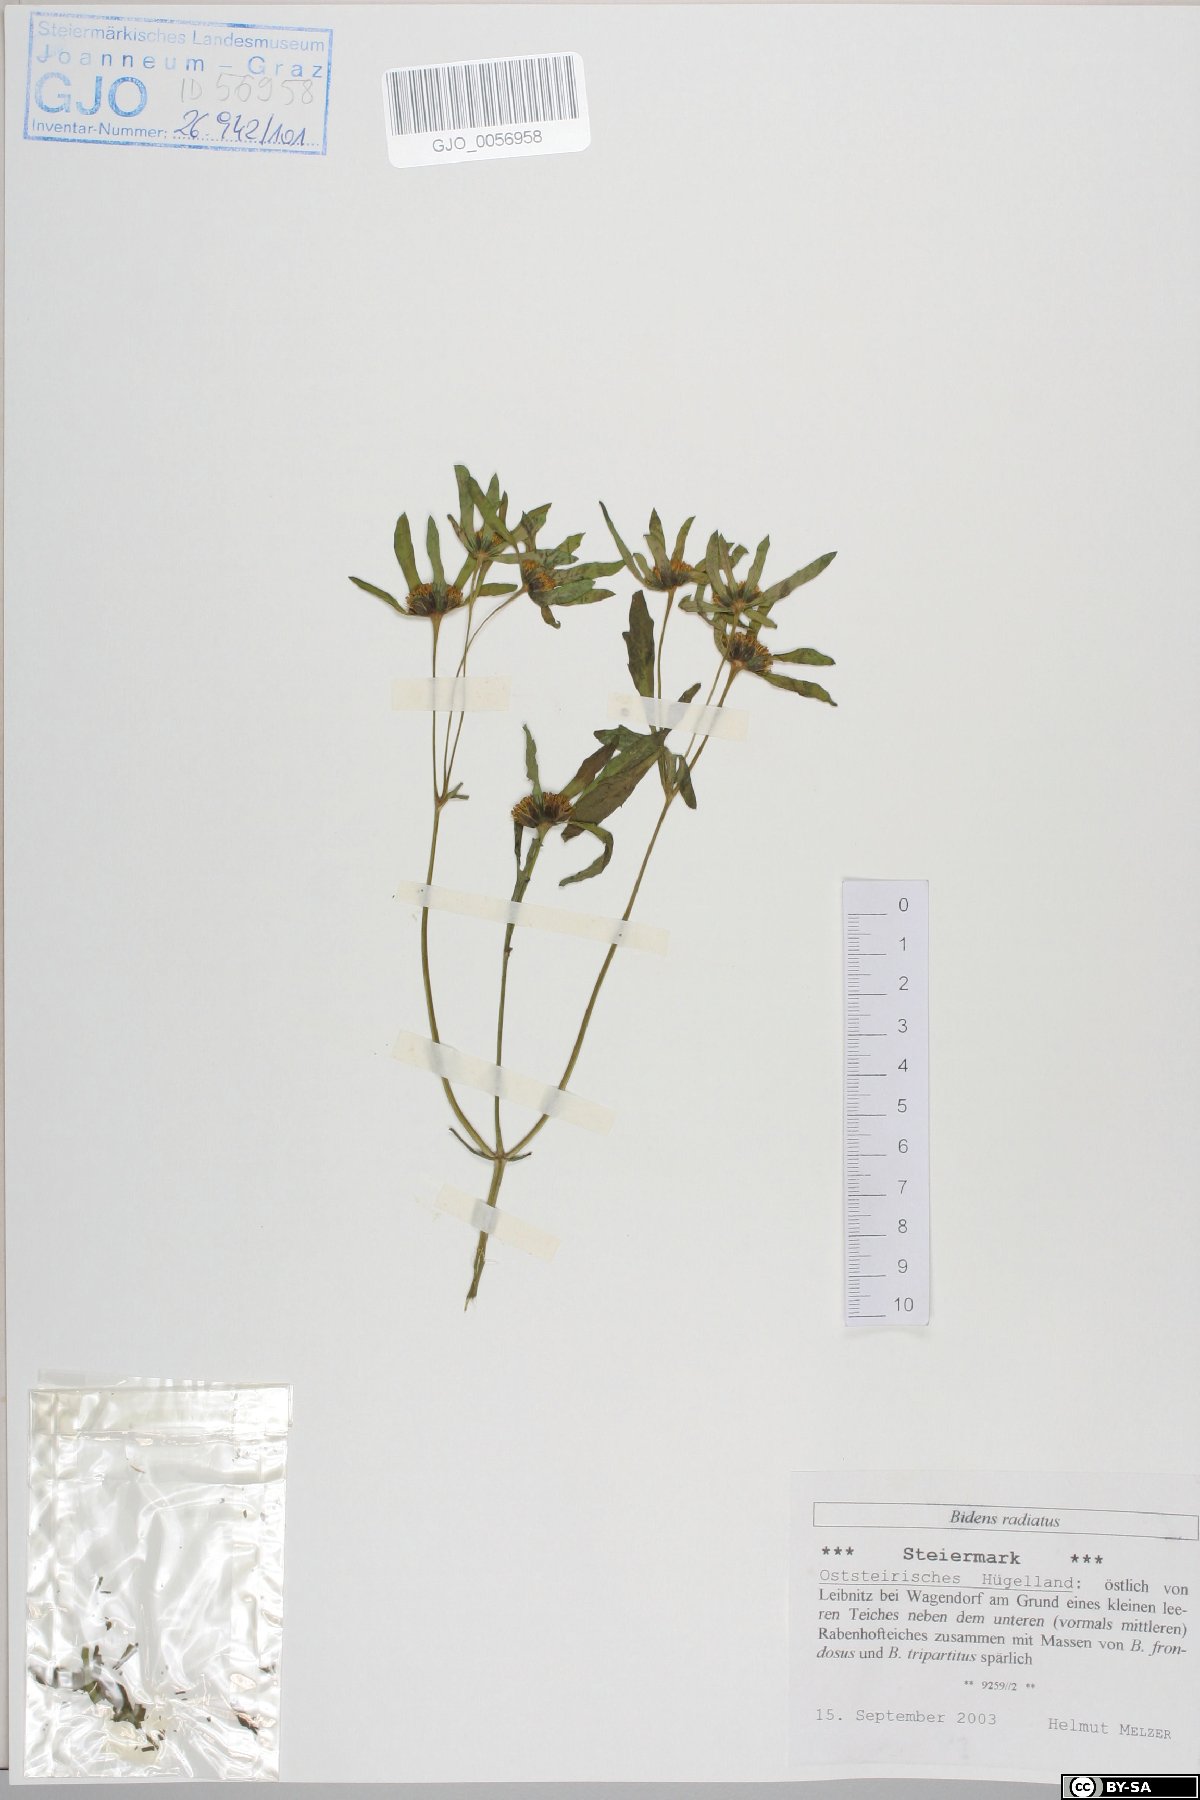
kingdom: Plantae
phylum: Tracheophyta
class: Magnoliopsida
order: Asterales
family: Asteraceae
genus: Bidens
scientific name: Bidens radiata
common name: Radiating bur-marigold
